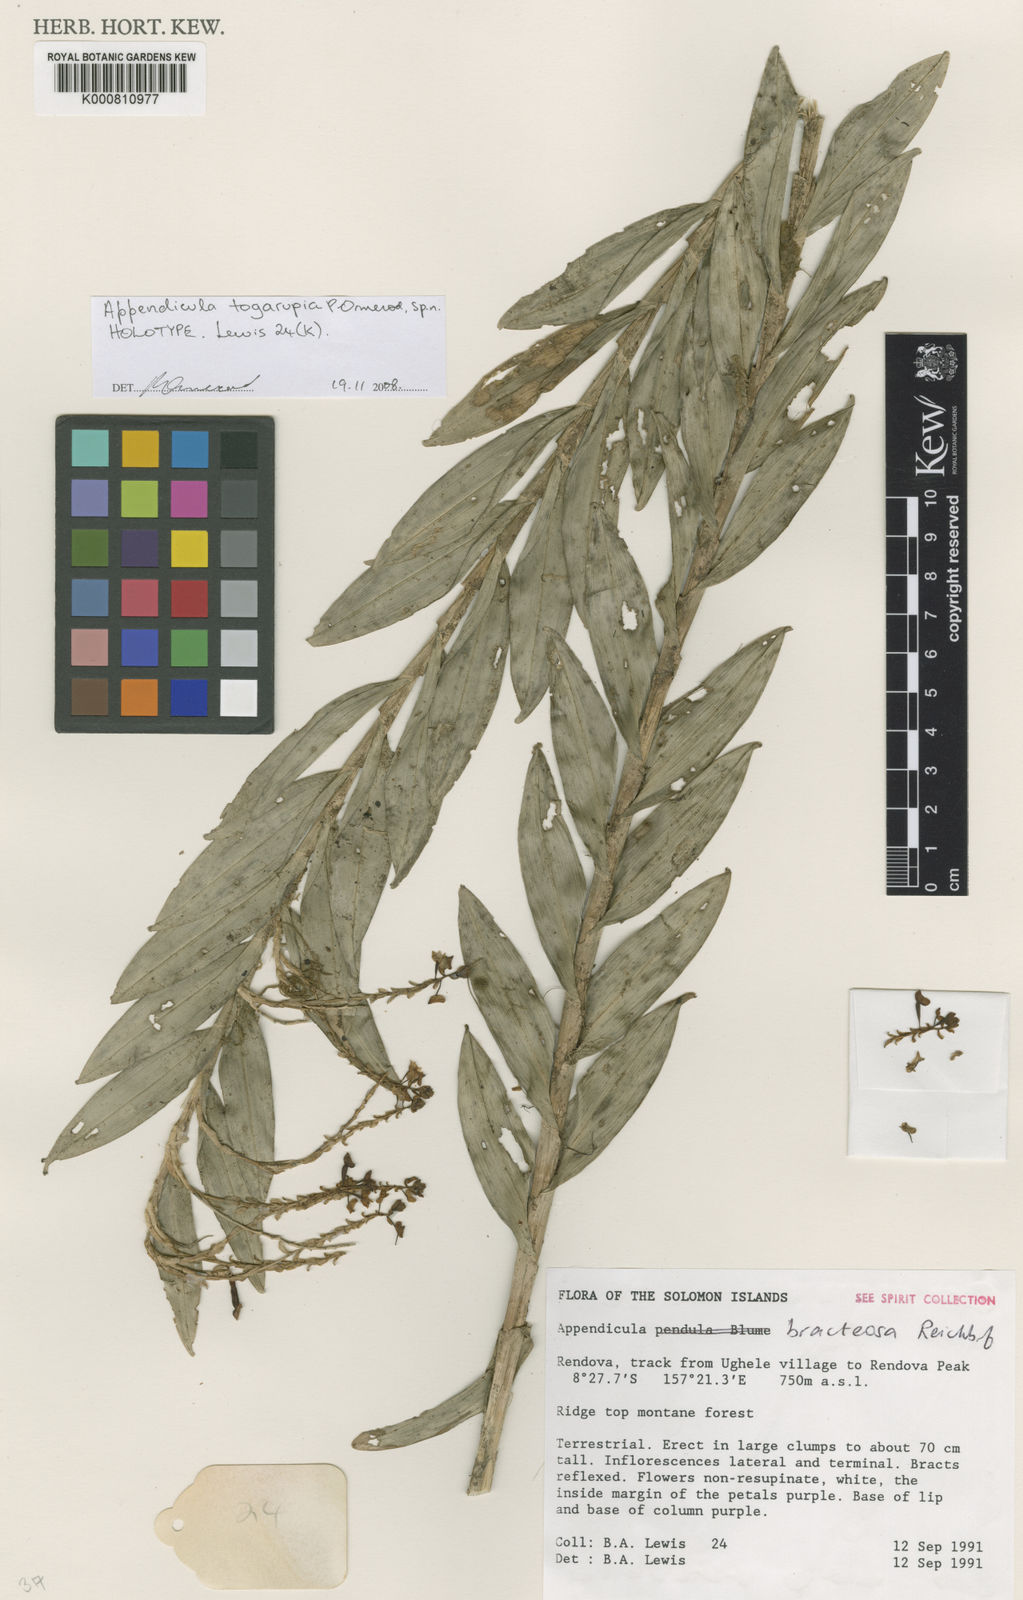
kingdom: Plantae
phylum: Tracheophyta
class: Liliopsida
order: Asparagales
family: Orchidaceae
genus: Appendicula
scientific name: Appendicula togarupia
